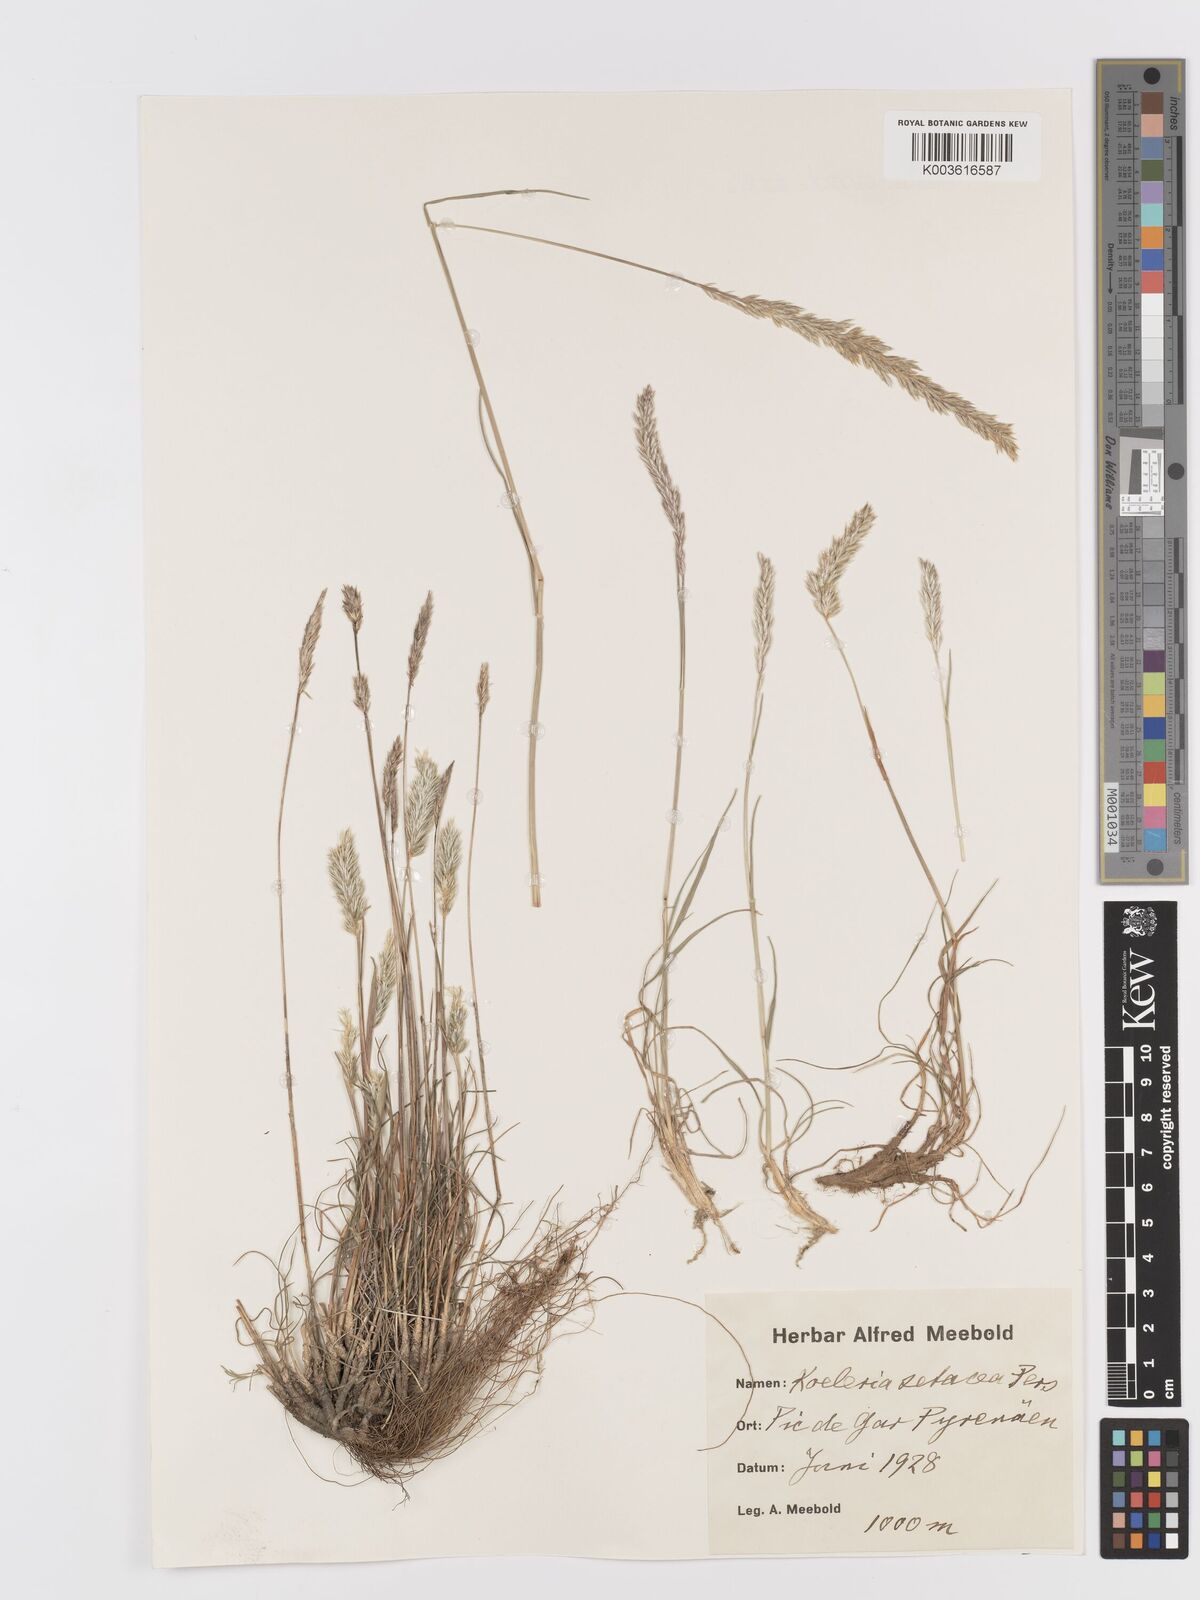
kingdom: Plantae
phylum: Tracheophyta
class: Liliopsida
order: Poales
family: Poaceae
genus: Koeleria
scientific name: Koeleria vallesiana
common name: Somerset hair-grass
